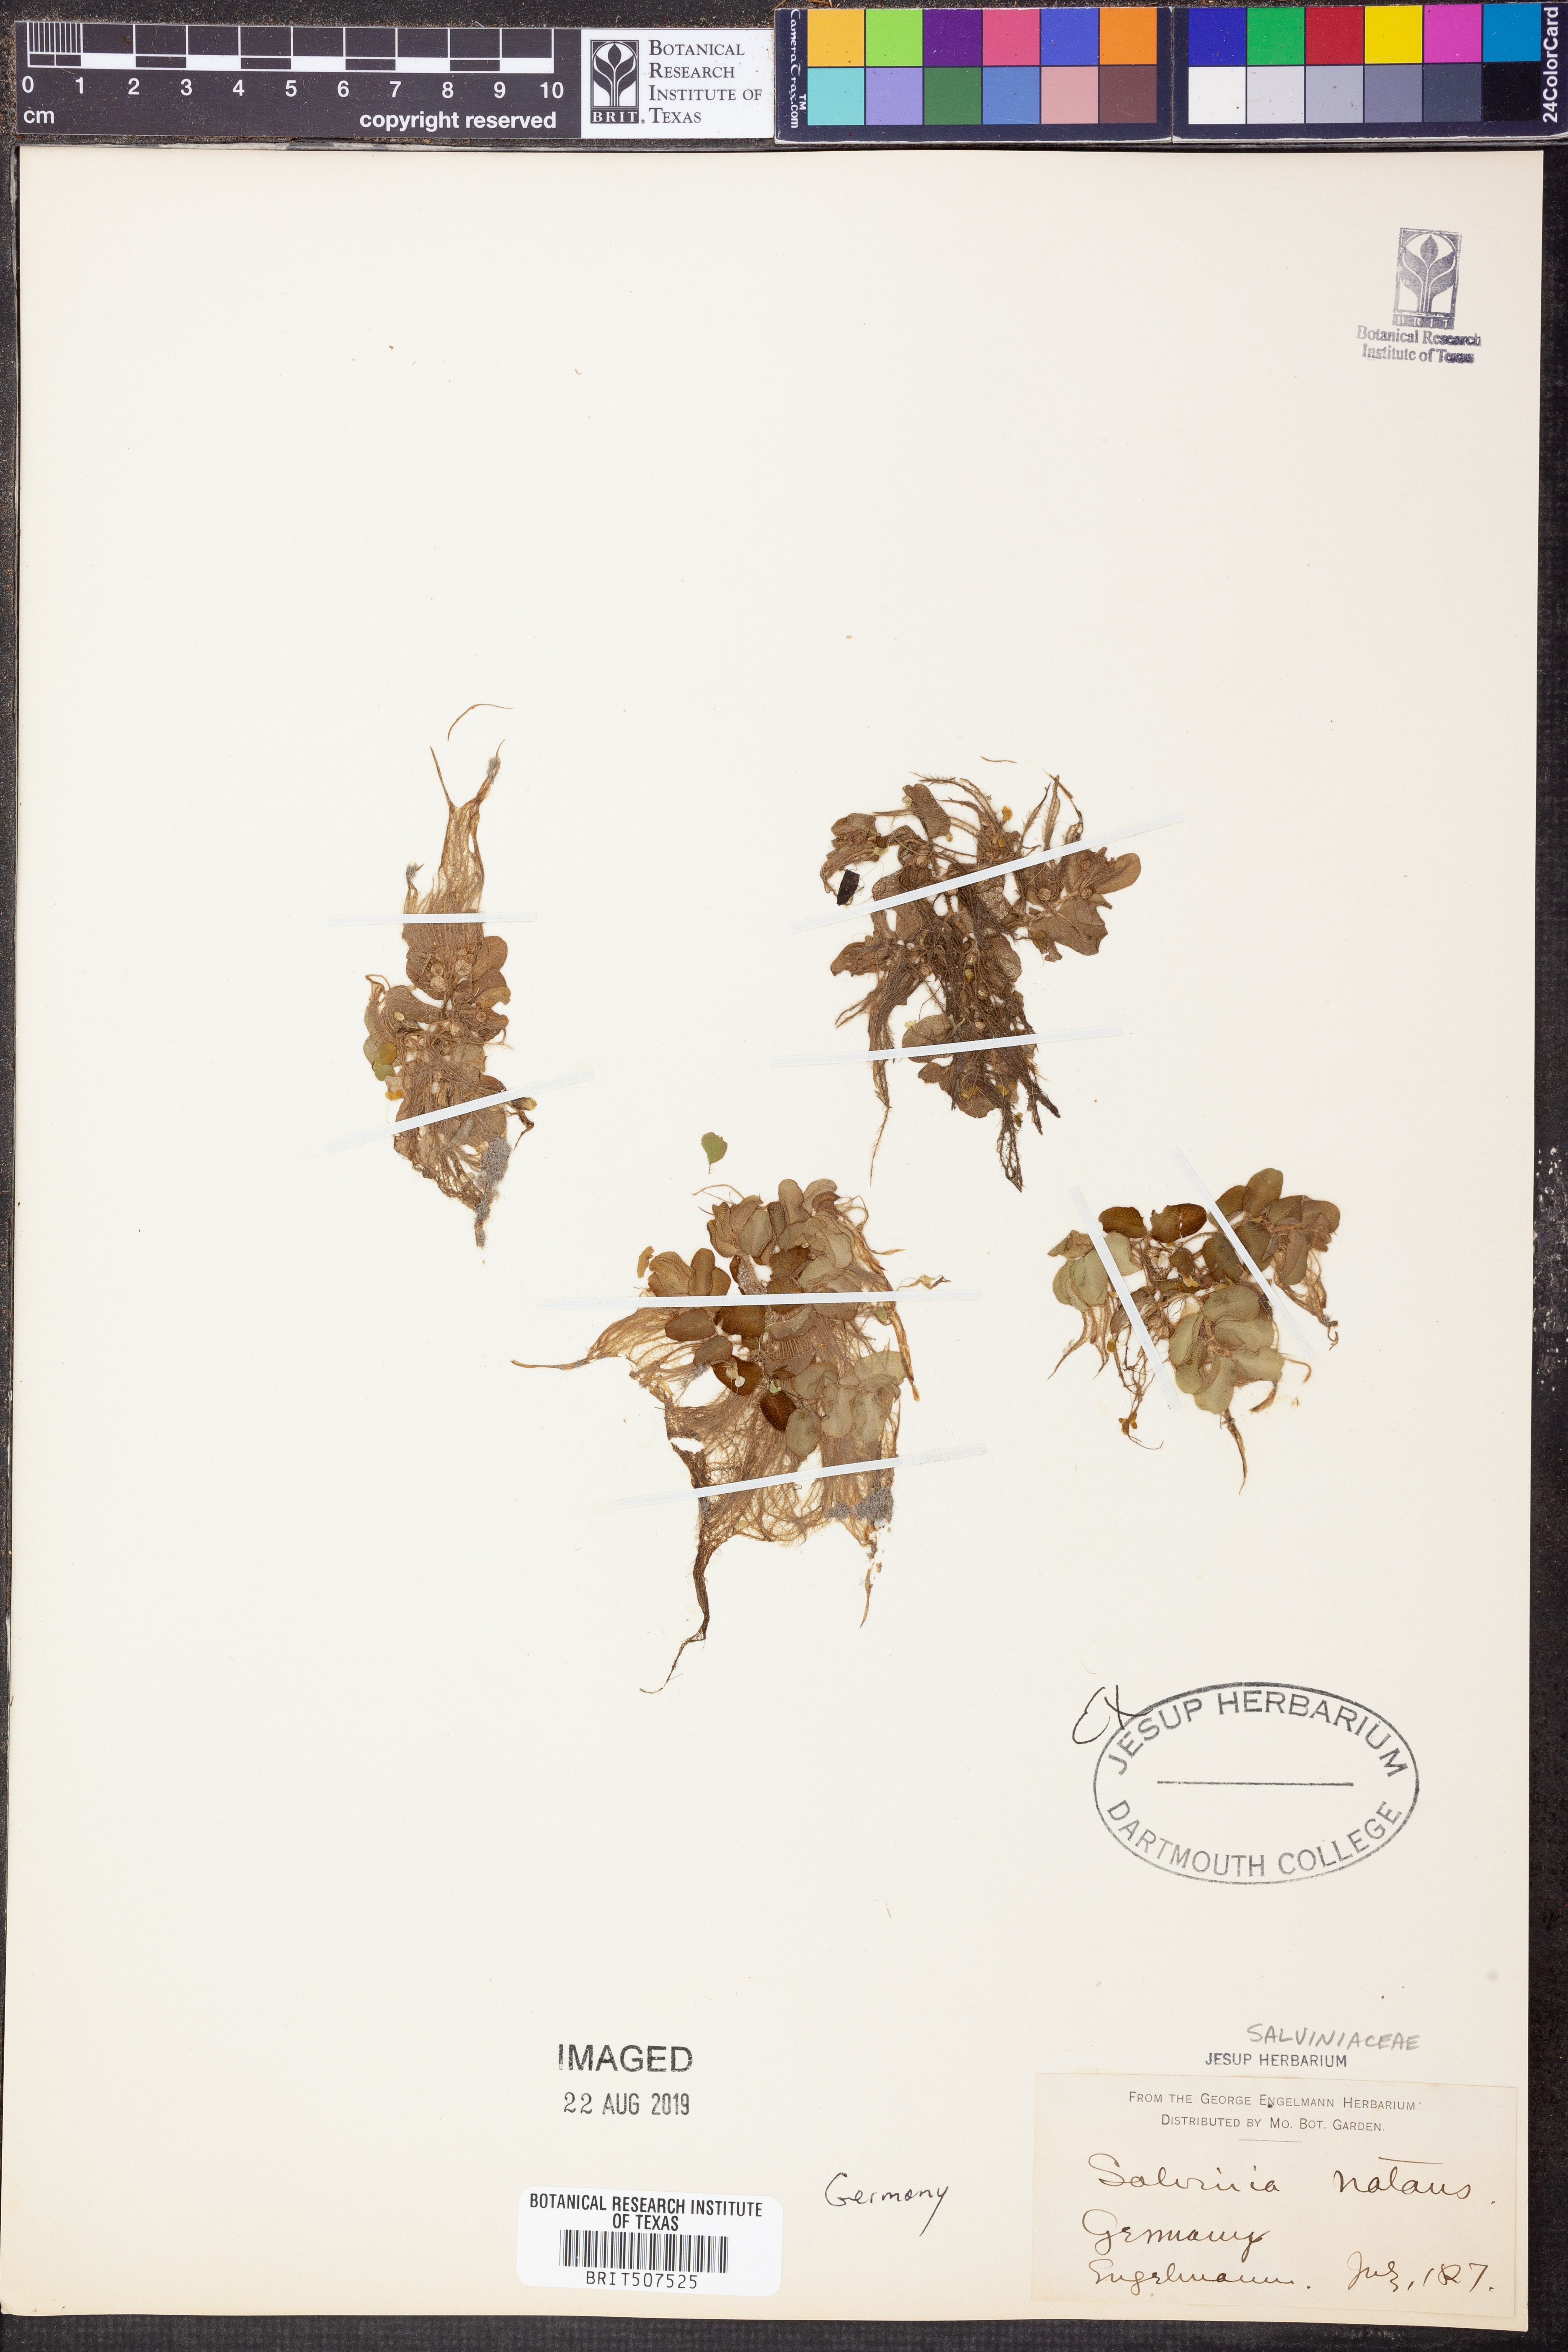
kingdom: Plantae
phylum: Tracheophyta
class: Polypodiopsida
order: Salviniales
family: Salviniaceae
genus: Salvinia
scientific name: Salvinia natans
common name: Floating fern
